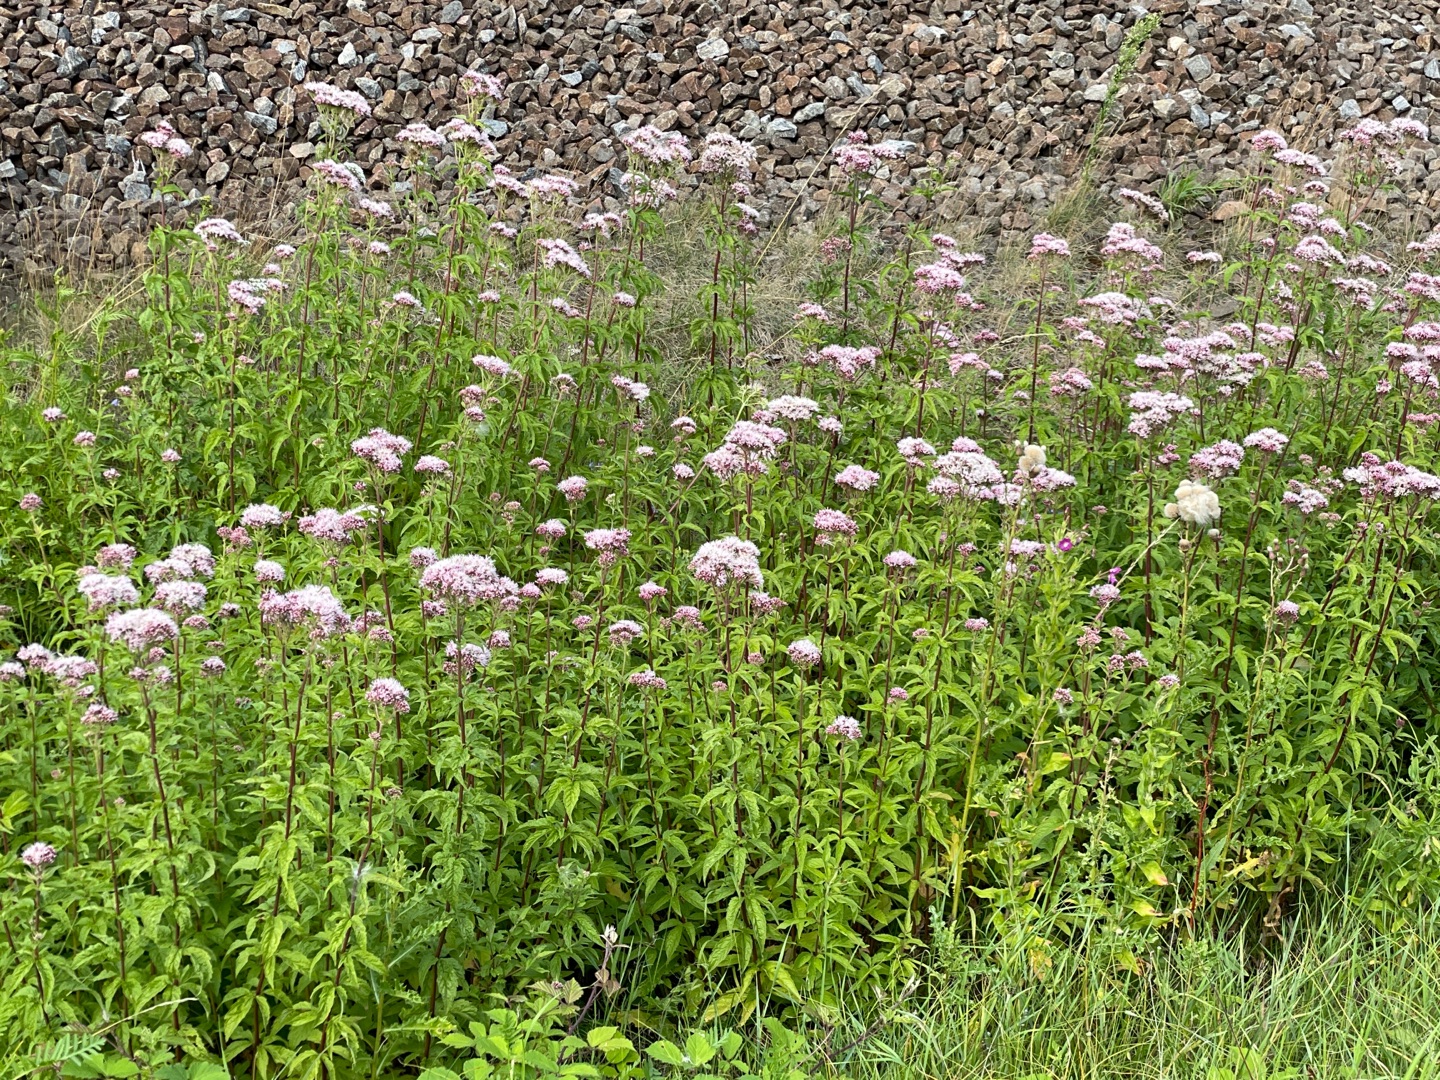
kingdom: Plantae
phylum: Tracheophyta
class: Magnoliopsida
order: Asterales
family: Asteraceae
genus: Eupatorium
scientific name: Eupatorium cannabinum
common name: Hjortetrøst
